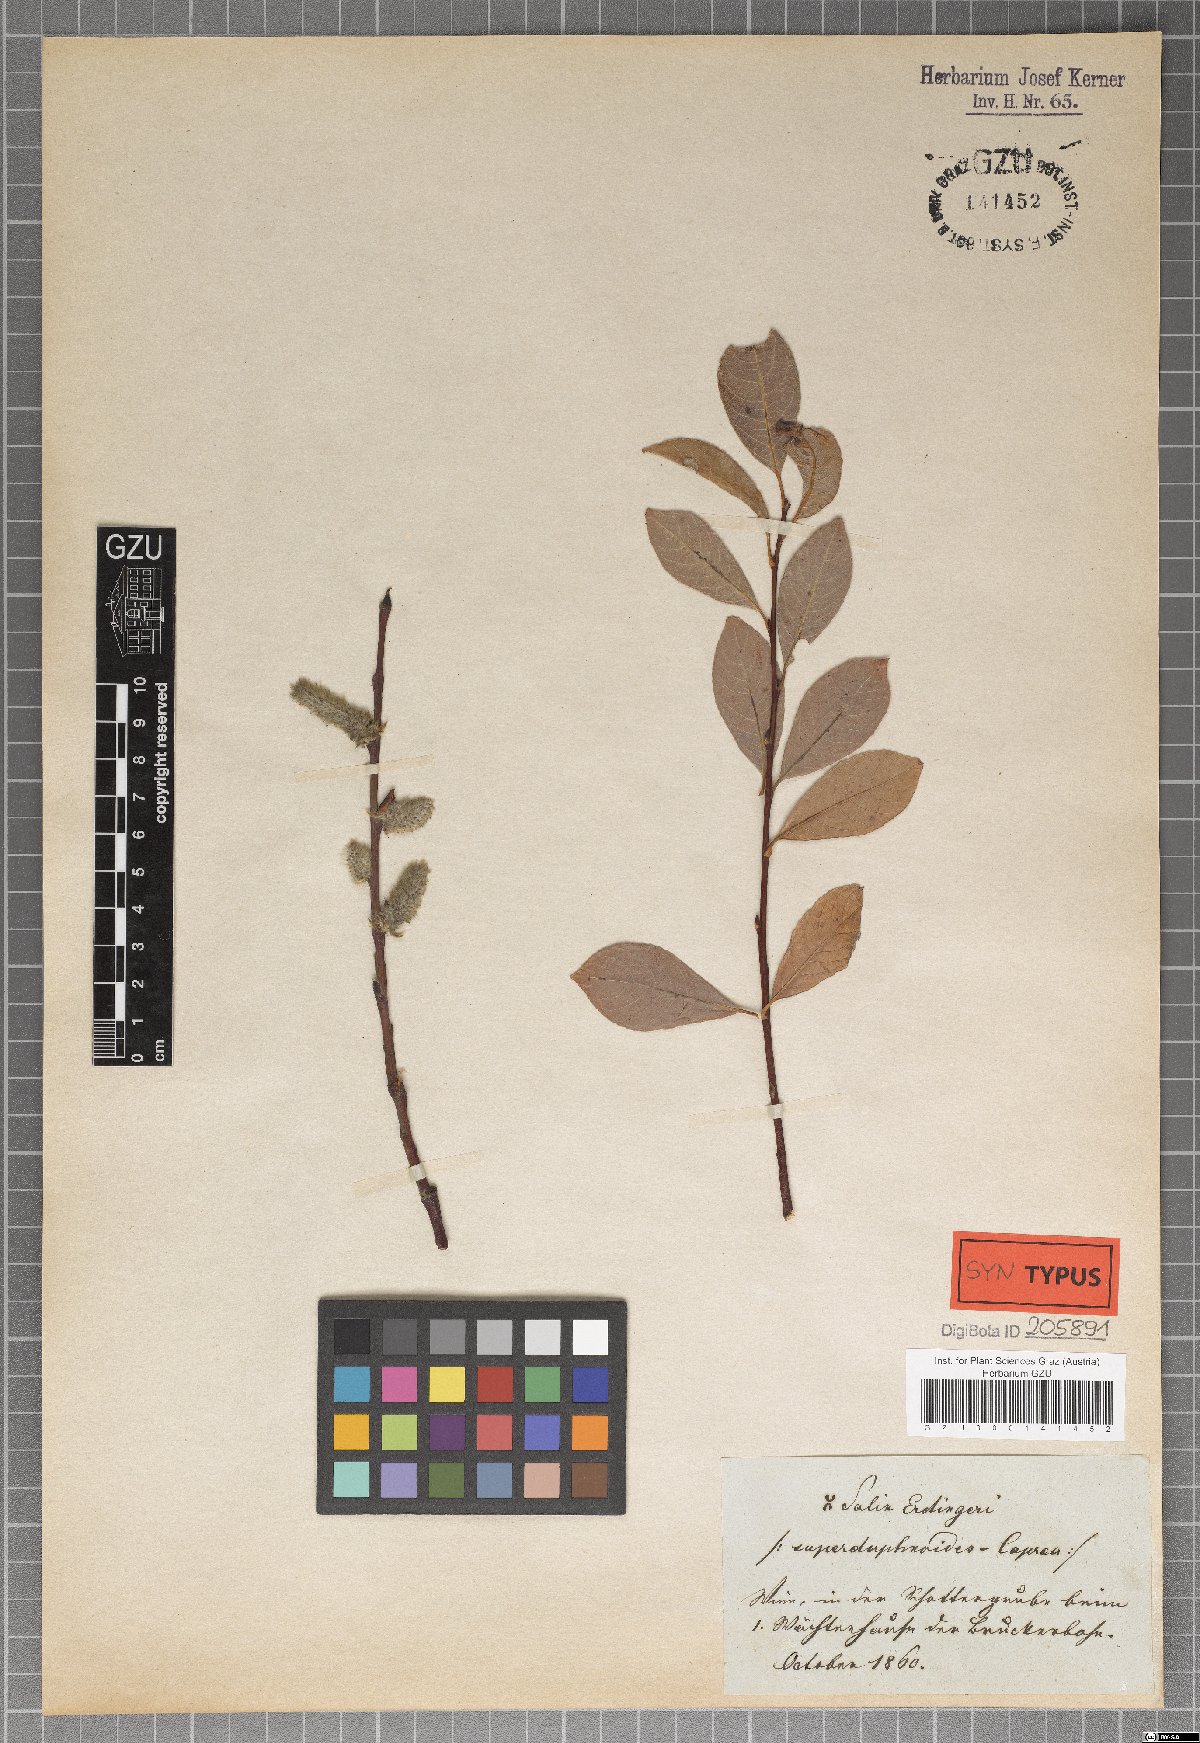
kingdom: Plantae
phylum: Tracheophyta
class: Magnoliopsida
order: Malpighiales
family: Salicaceae
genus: Salix
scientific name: Salix erdingeri
